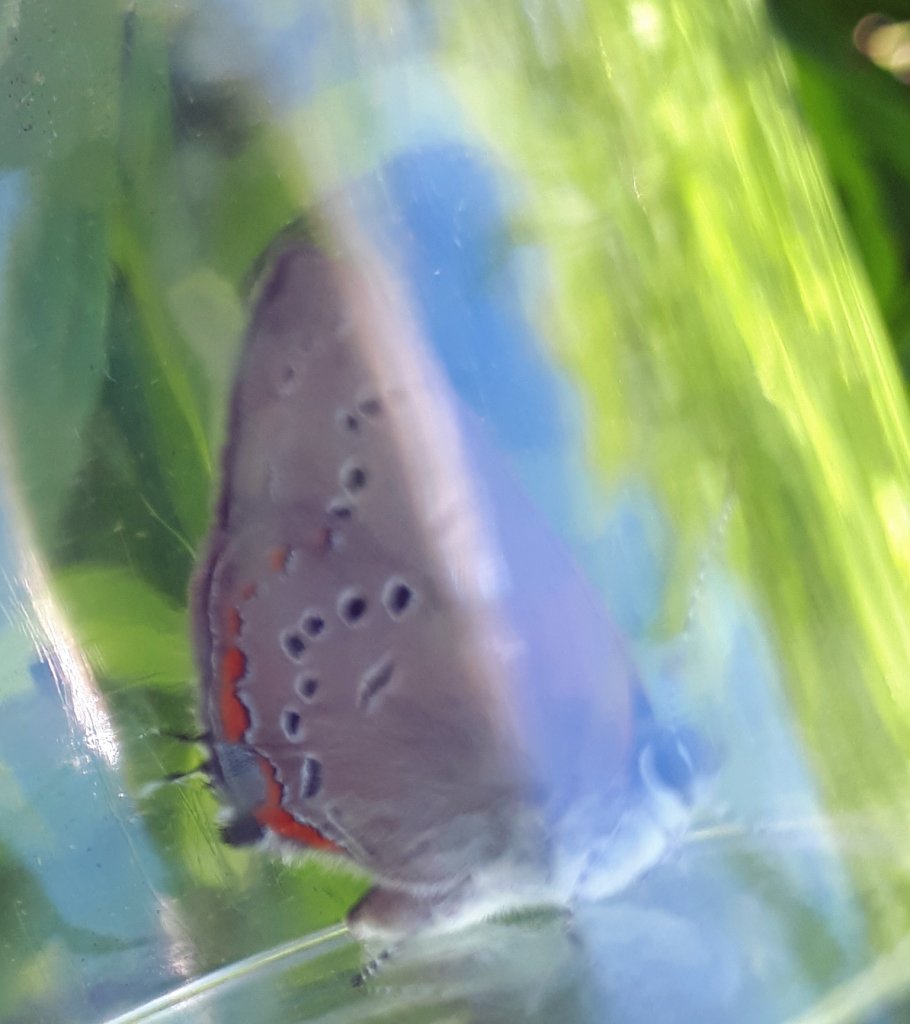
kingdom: Animalia
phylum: Arthropoda
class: Insecta
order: Lepidoptera
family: Lycaenidae
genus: Strymon
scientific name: Strymon acadica
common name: Acadian Hairstreak
